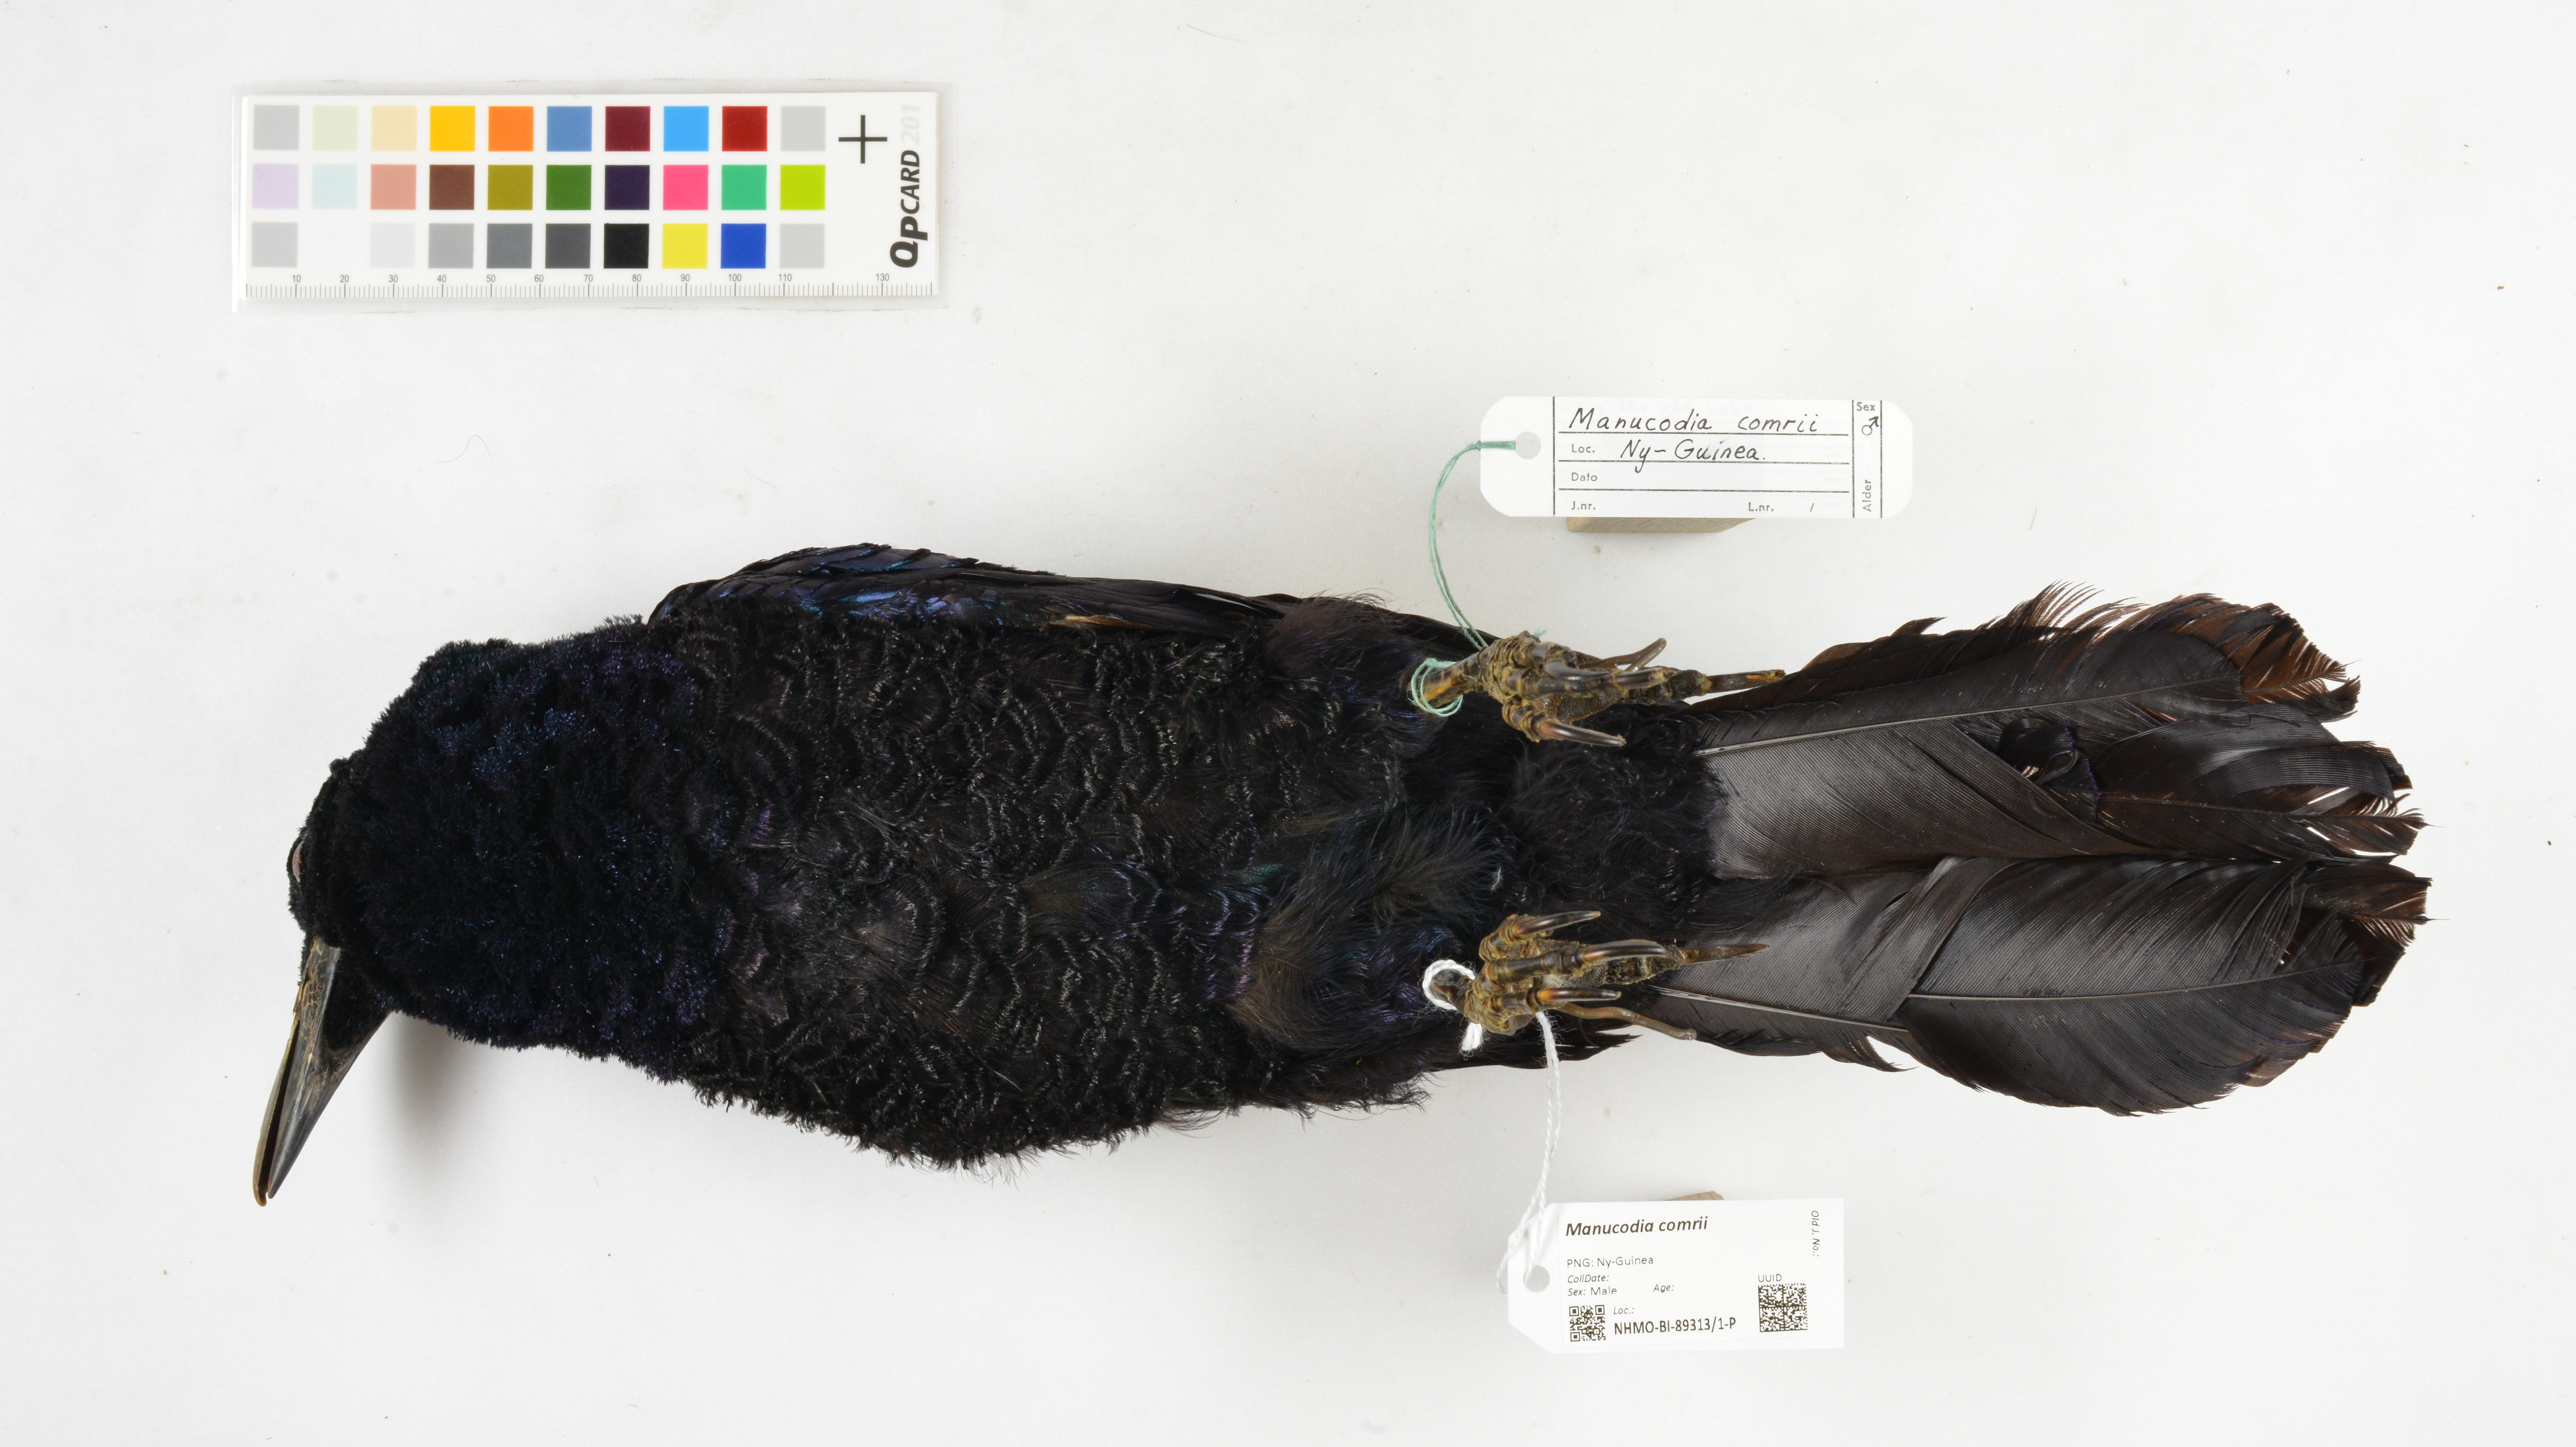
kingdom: Animalia
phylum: Chordata
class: Aves
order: Passeriformes
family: Paradisaeidae
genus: Manucodia
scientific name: Manucodia comrii
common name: Curl-crested manucode
